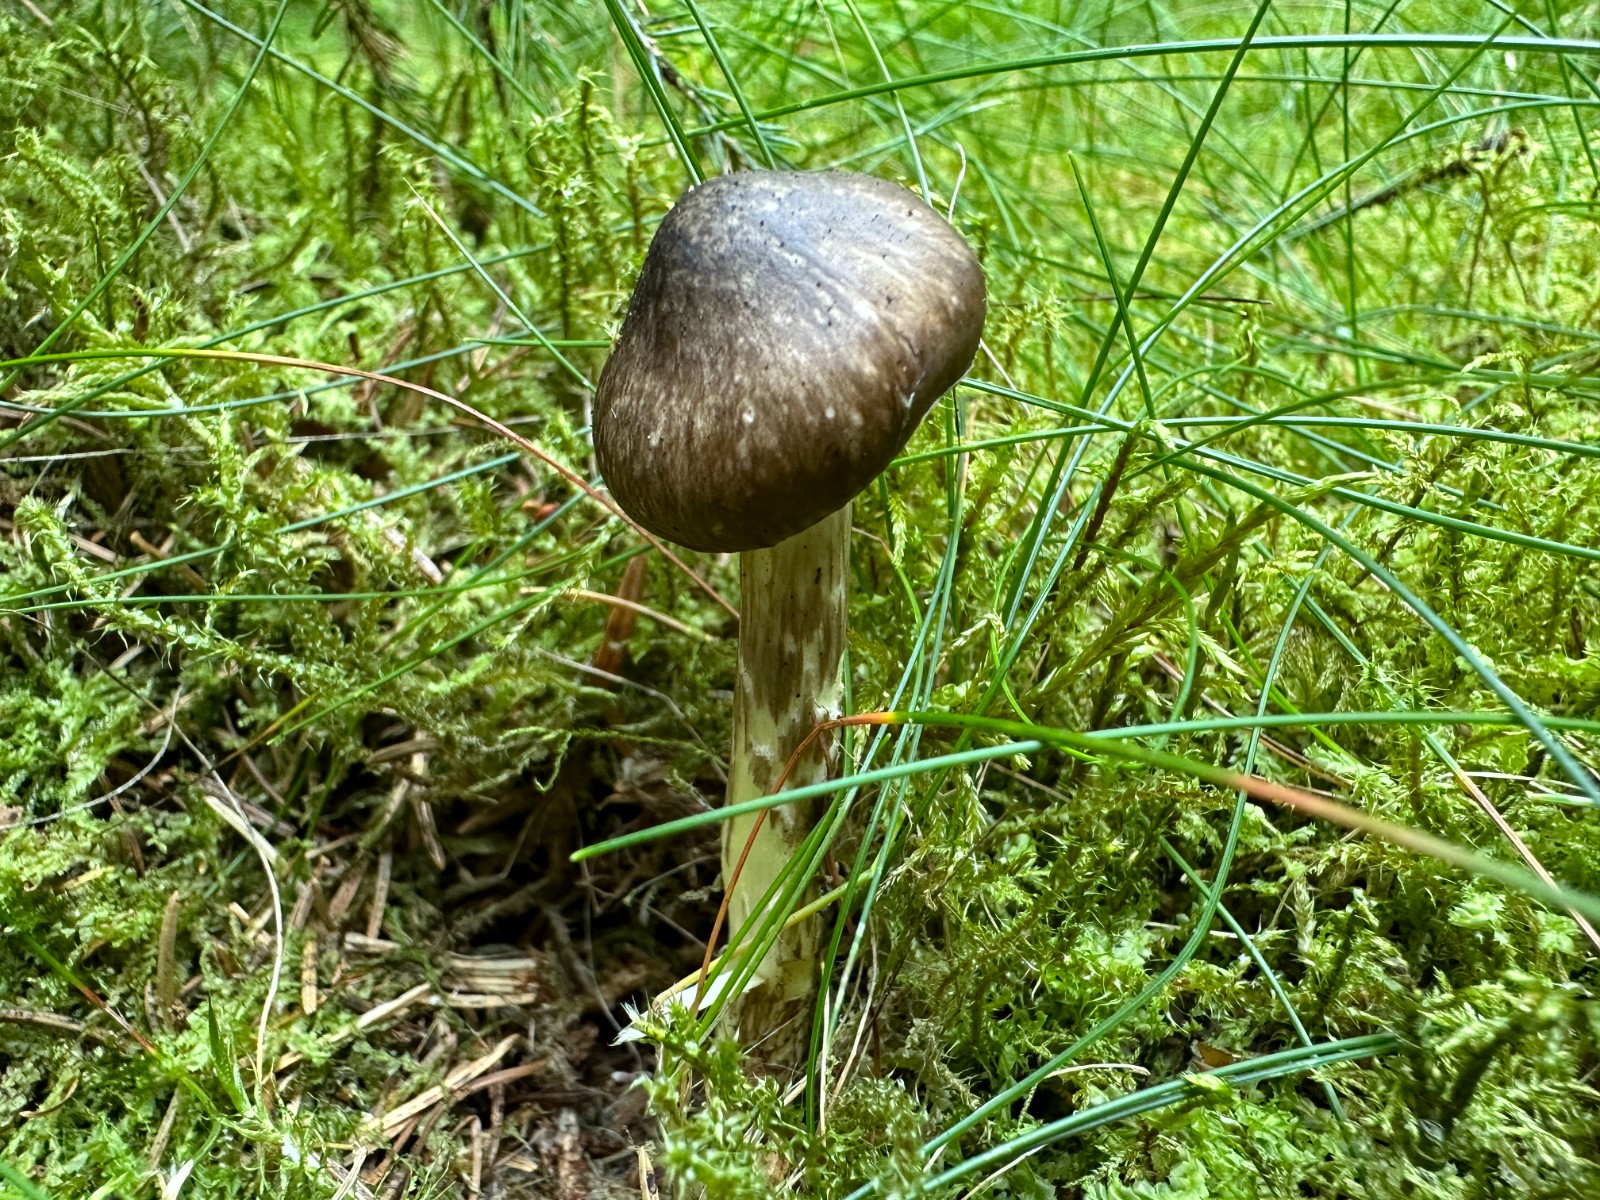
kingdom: Fungi
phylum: Basidiomycota
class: Agaricomycetes
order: Agaricales
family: Hygrophoraceae
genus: Hygrophorus
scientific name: Hygrophorus olivaceoalbus
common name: hvidbrun sneglehat
